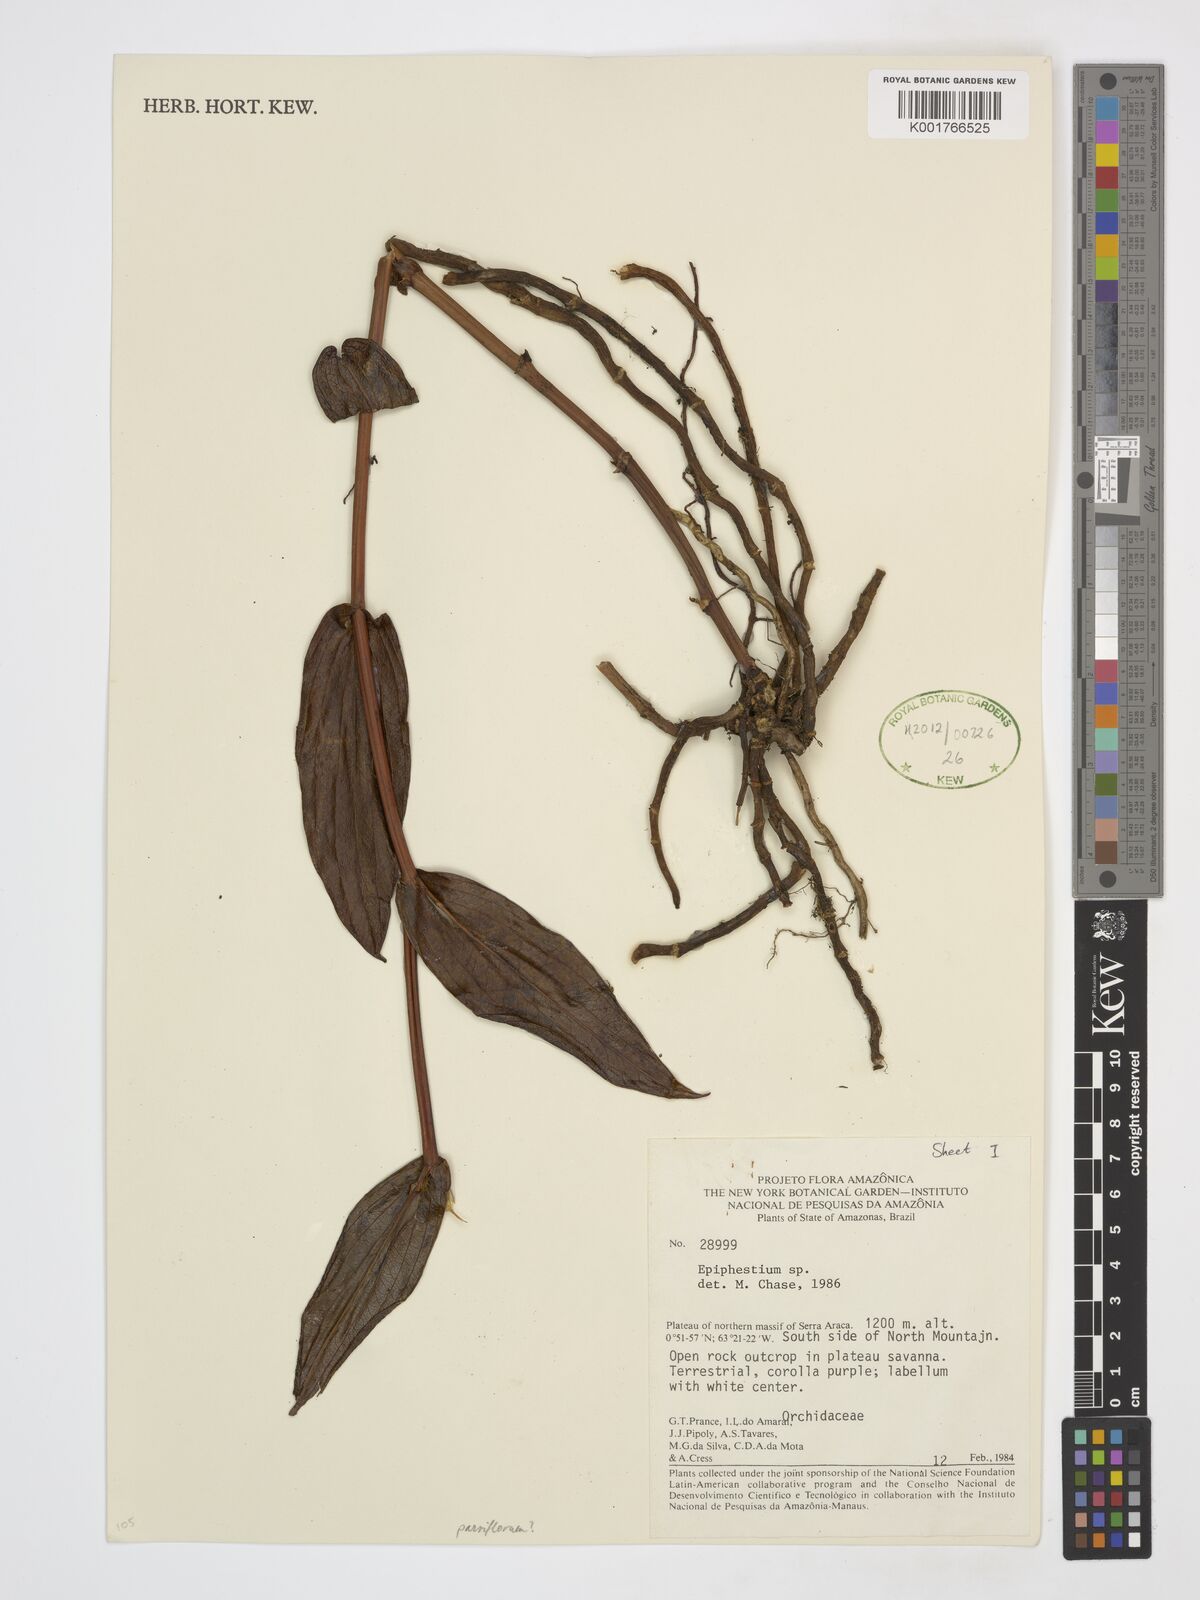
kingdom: Plantae
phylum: Tracheophyta
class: Liliopsida
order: Asparagales
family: Orchidaceae
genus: Epistephium
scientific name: Epistephium
